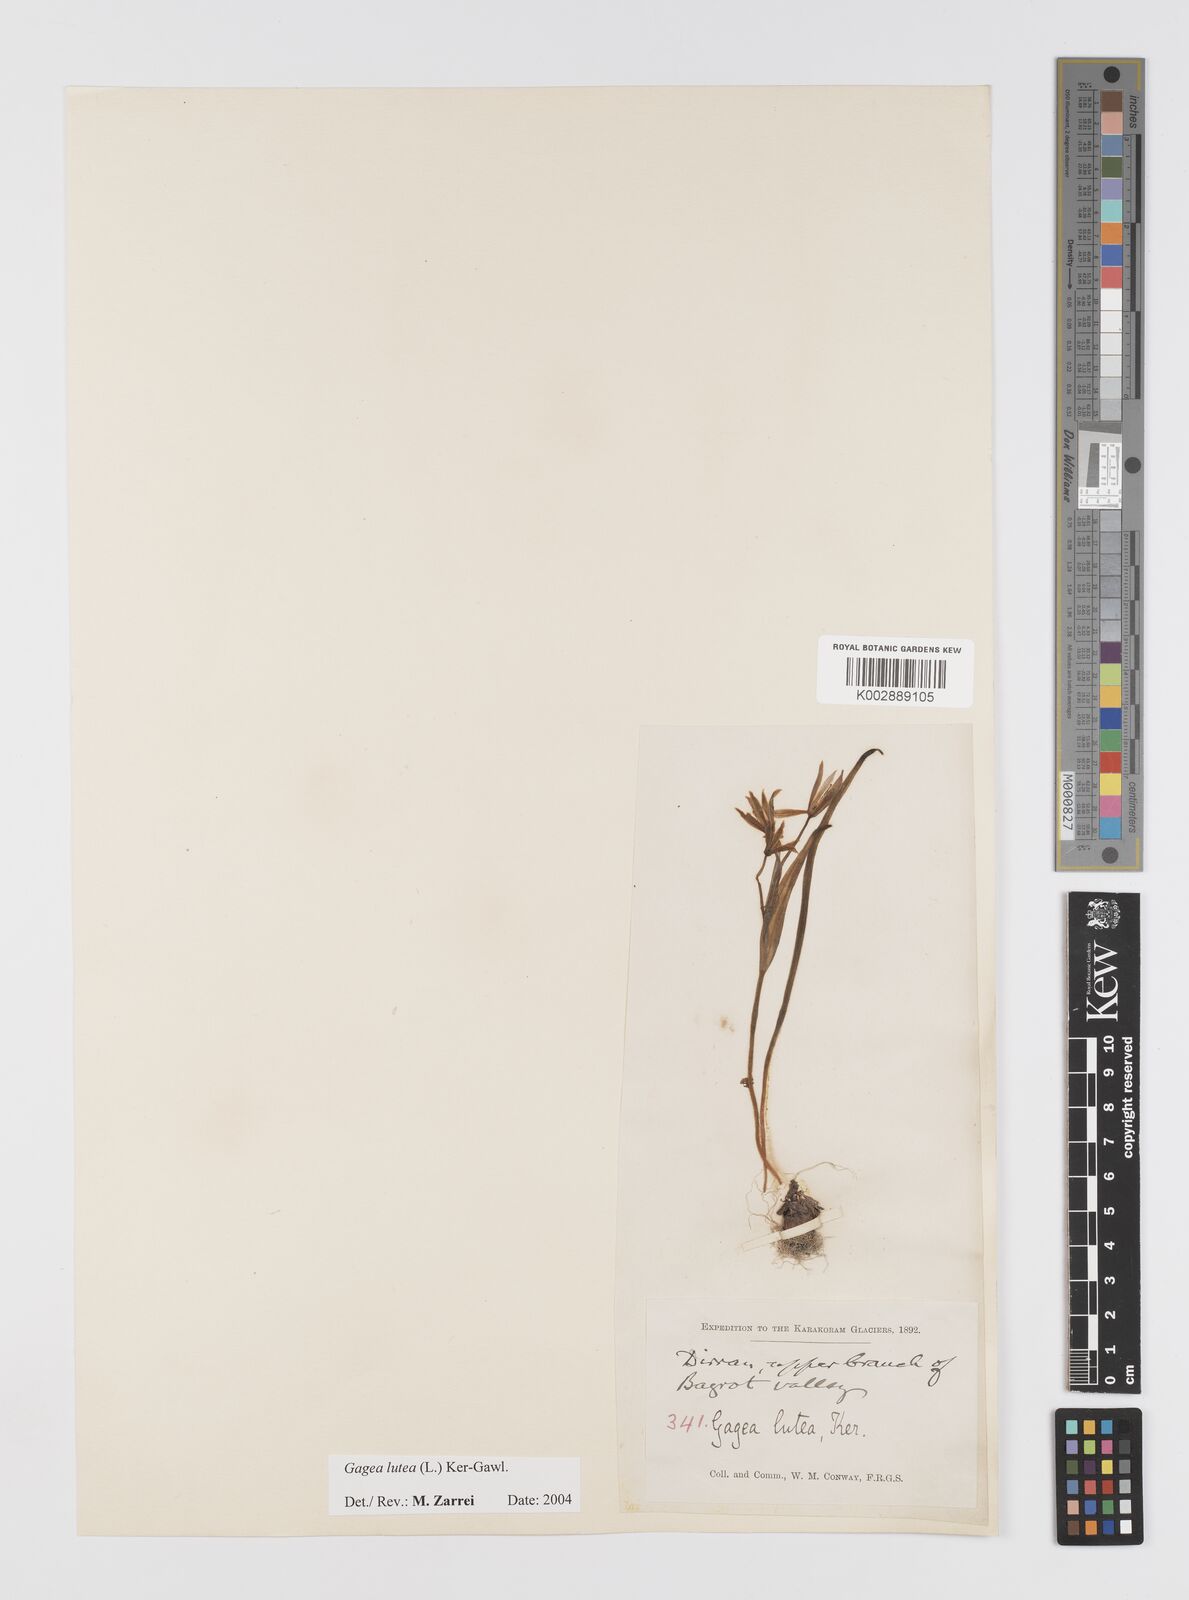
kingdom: Plantae
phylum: Tracheophyta
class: Liliopsida
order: Liliales
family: Liliaceae
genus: Gagea
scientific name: Gagea lutea
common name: Yellow star-of-bethlehem
